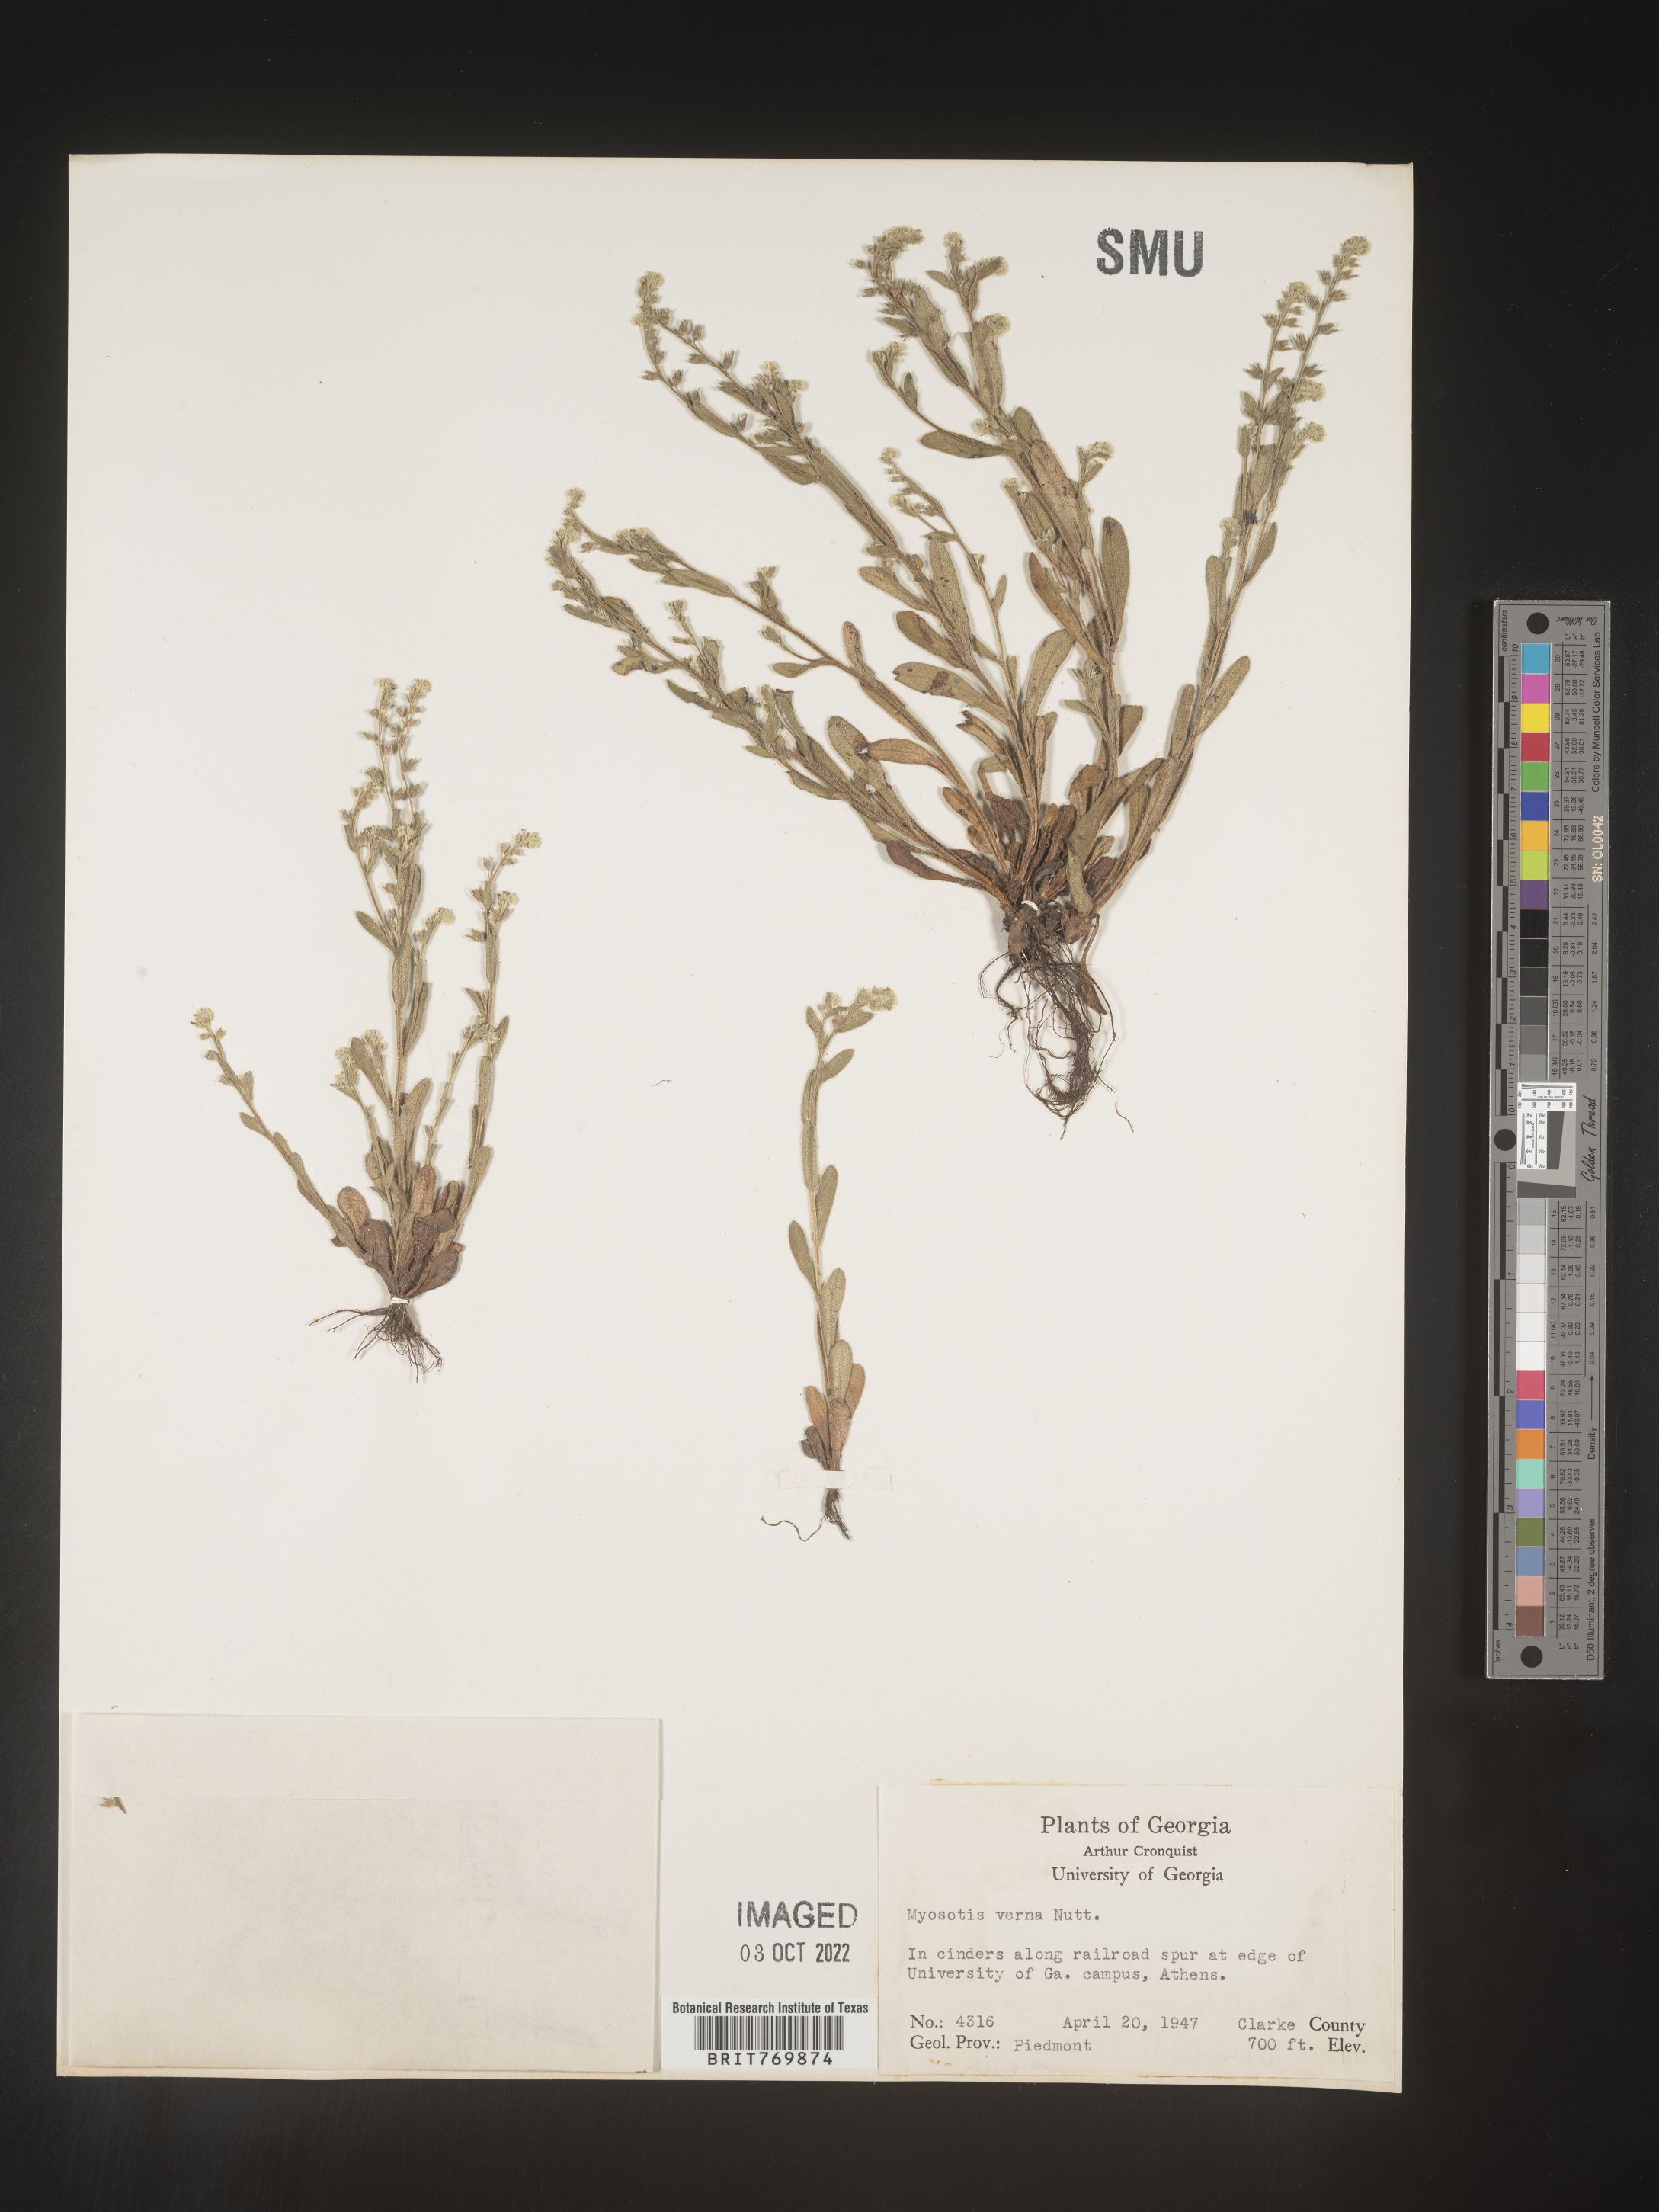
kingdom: Plantae
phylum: Tracheophyta
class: Magnoliopsida
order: Boraginales
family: Boraginaceae
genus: Myosotis
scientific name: Myosotis verna
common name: Early forget-me-not
